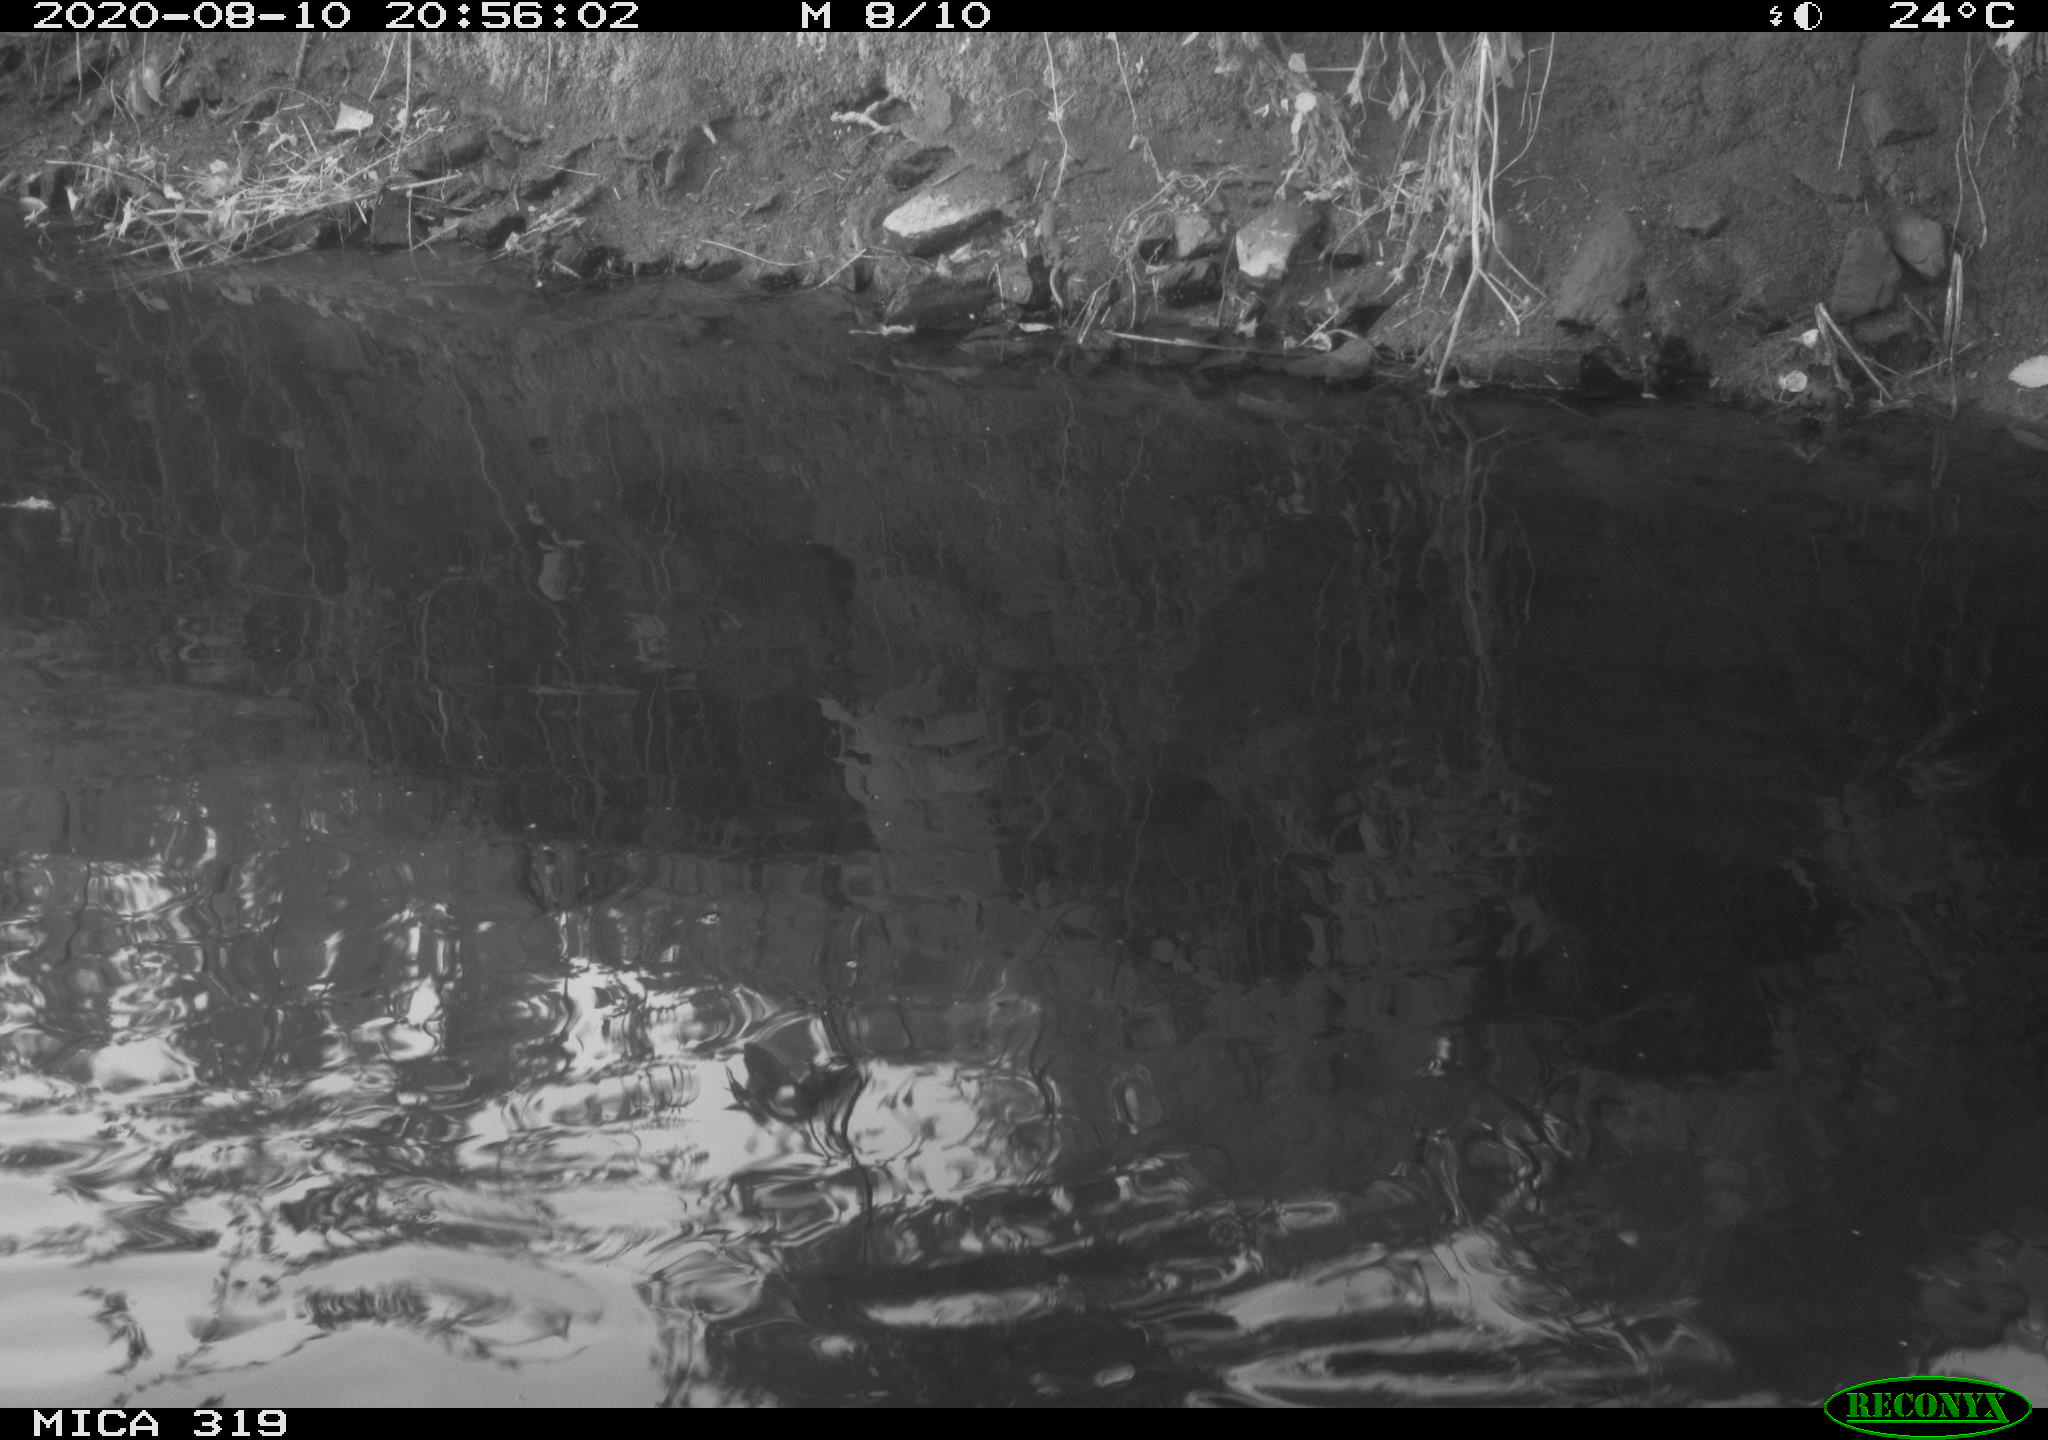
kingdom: Animalia
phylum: Chordata
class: Aves
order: Anseriformes
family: Anatidae
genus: Anas
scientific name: Anas platyrhynchos
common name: Mallard
